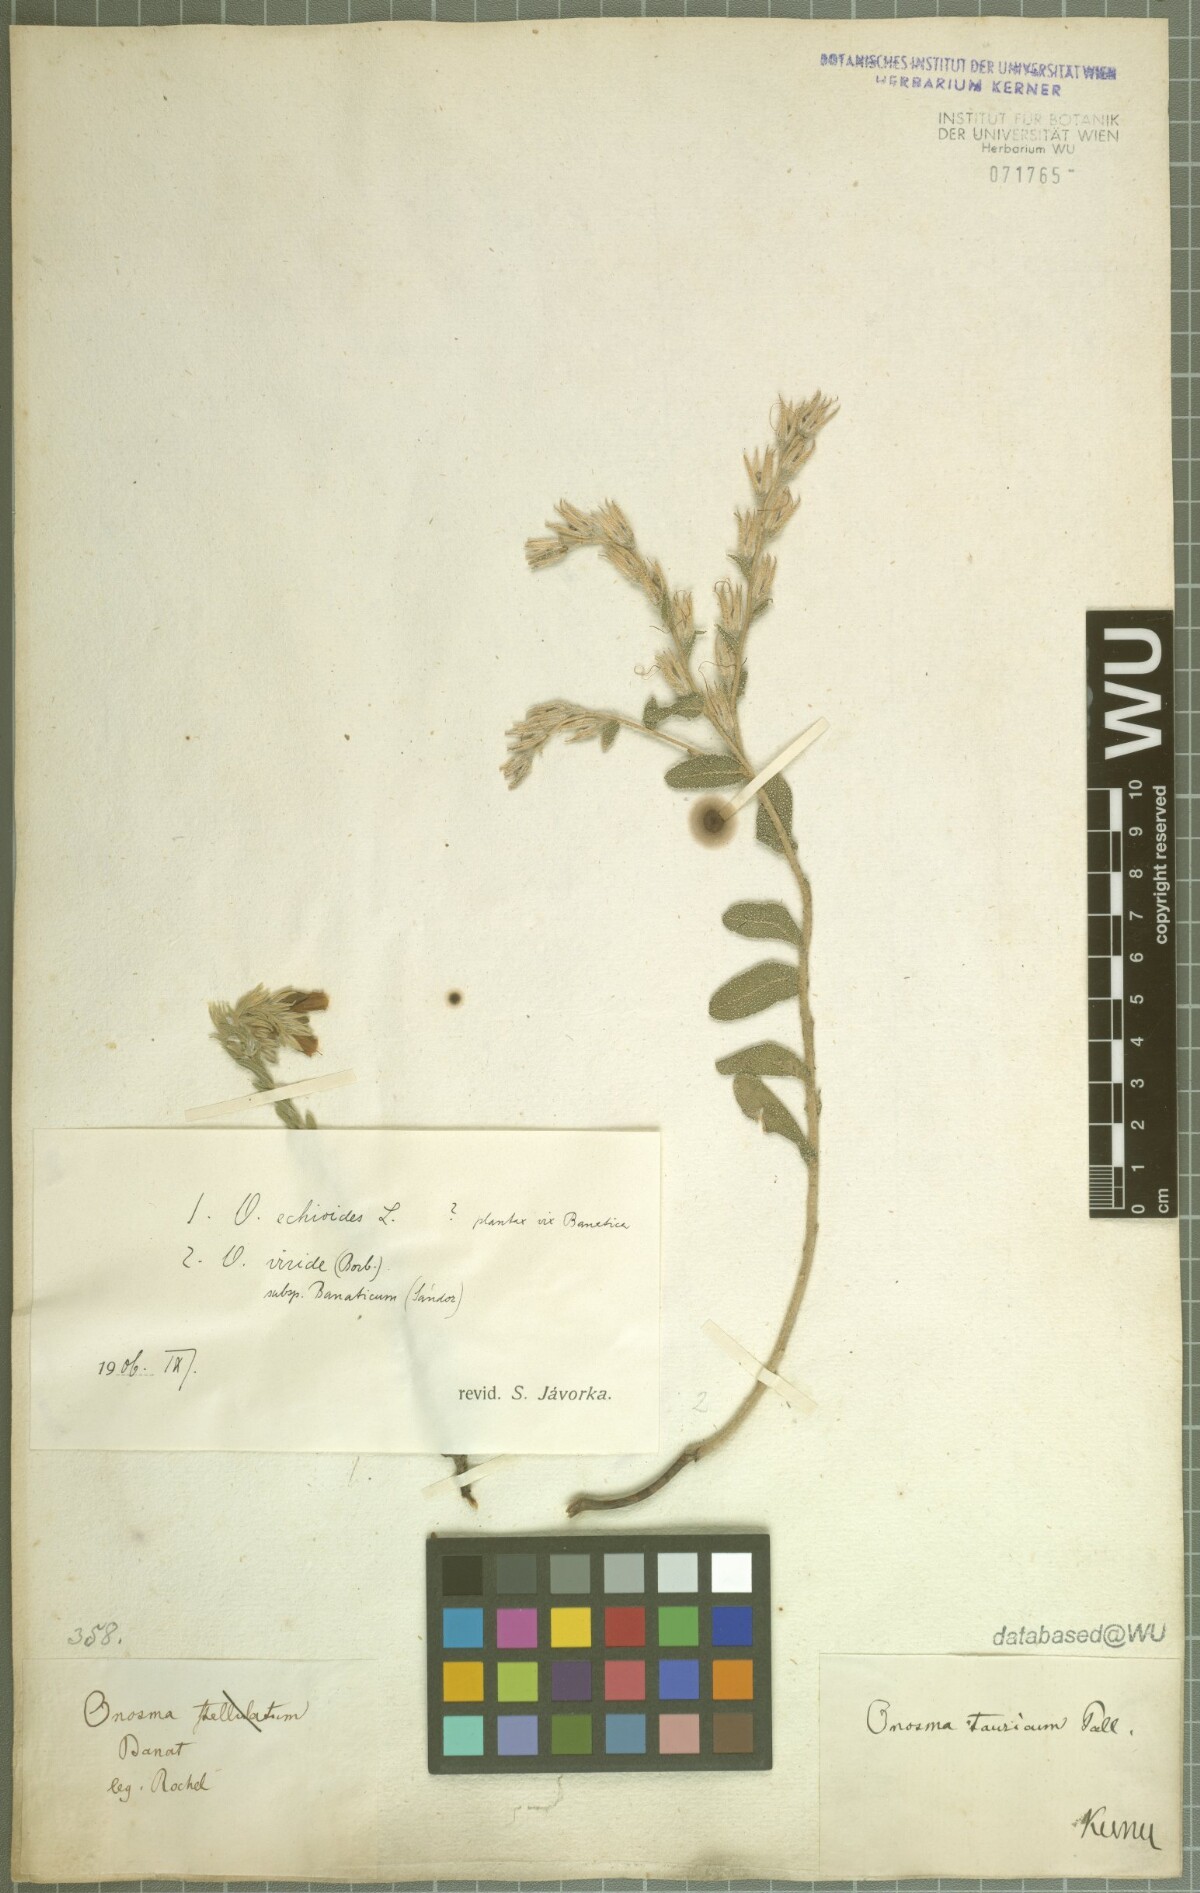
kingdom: Plantae
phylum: Tracheophyta
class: Magnoliopsida
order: Boraginales
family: Boraginaceae
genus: Onosma
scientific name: Onosma viridis
